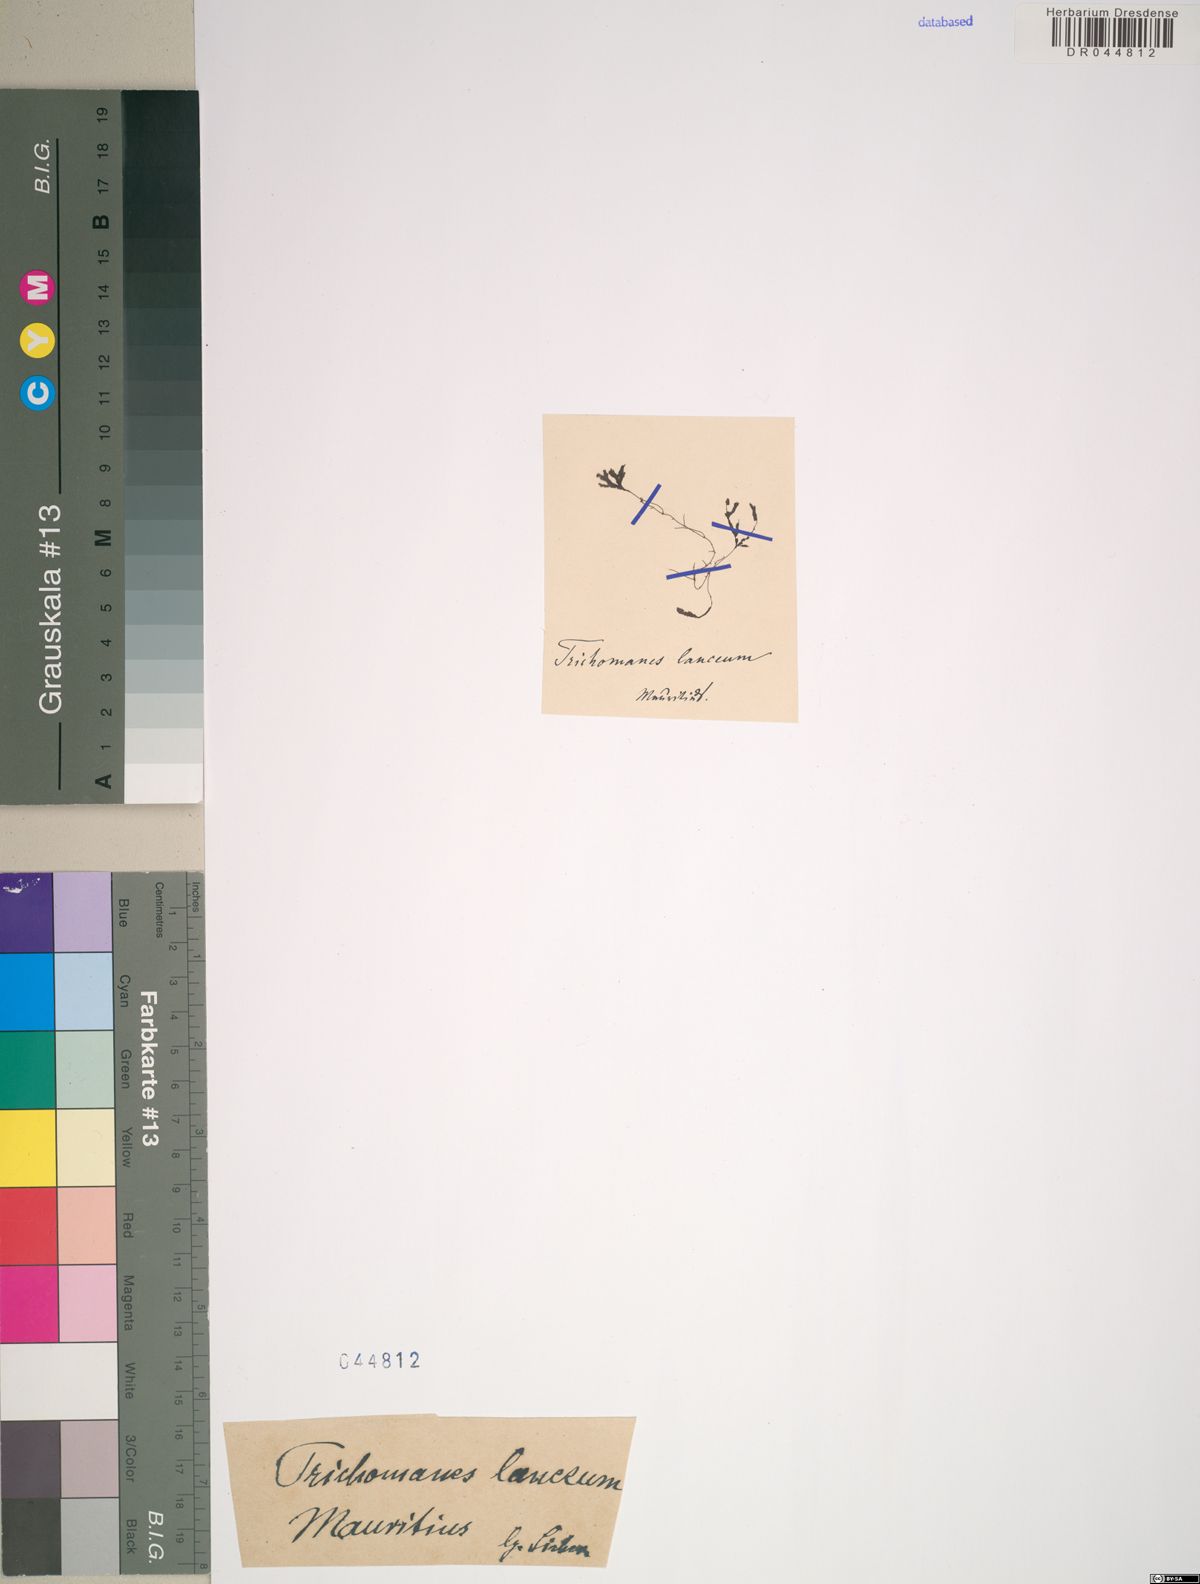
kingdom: Plantae
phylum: Tracheophyta
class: Polypodiopsida
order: Hymenophyllales
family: Hymenophyllaceae
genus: Crepidomanes
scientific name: Crepidomanes bonapartei
